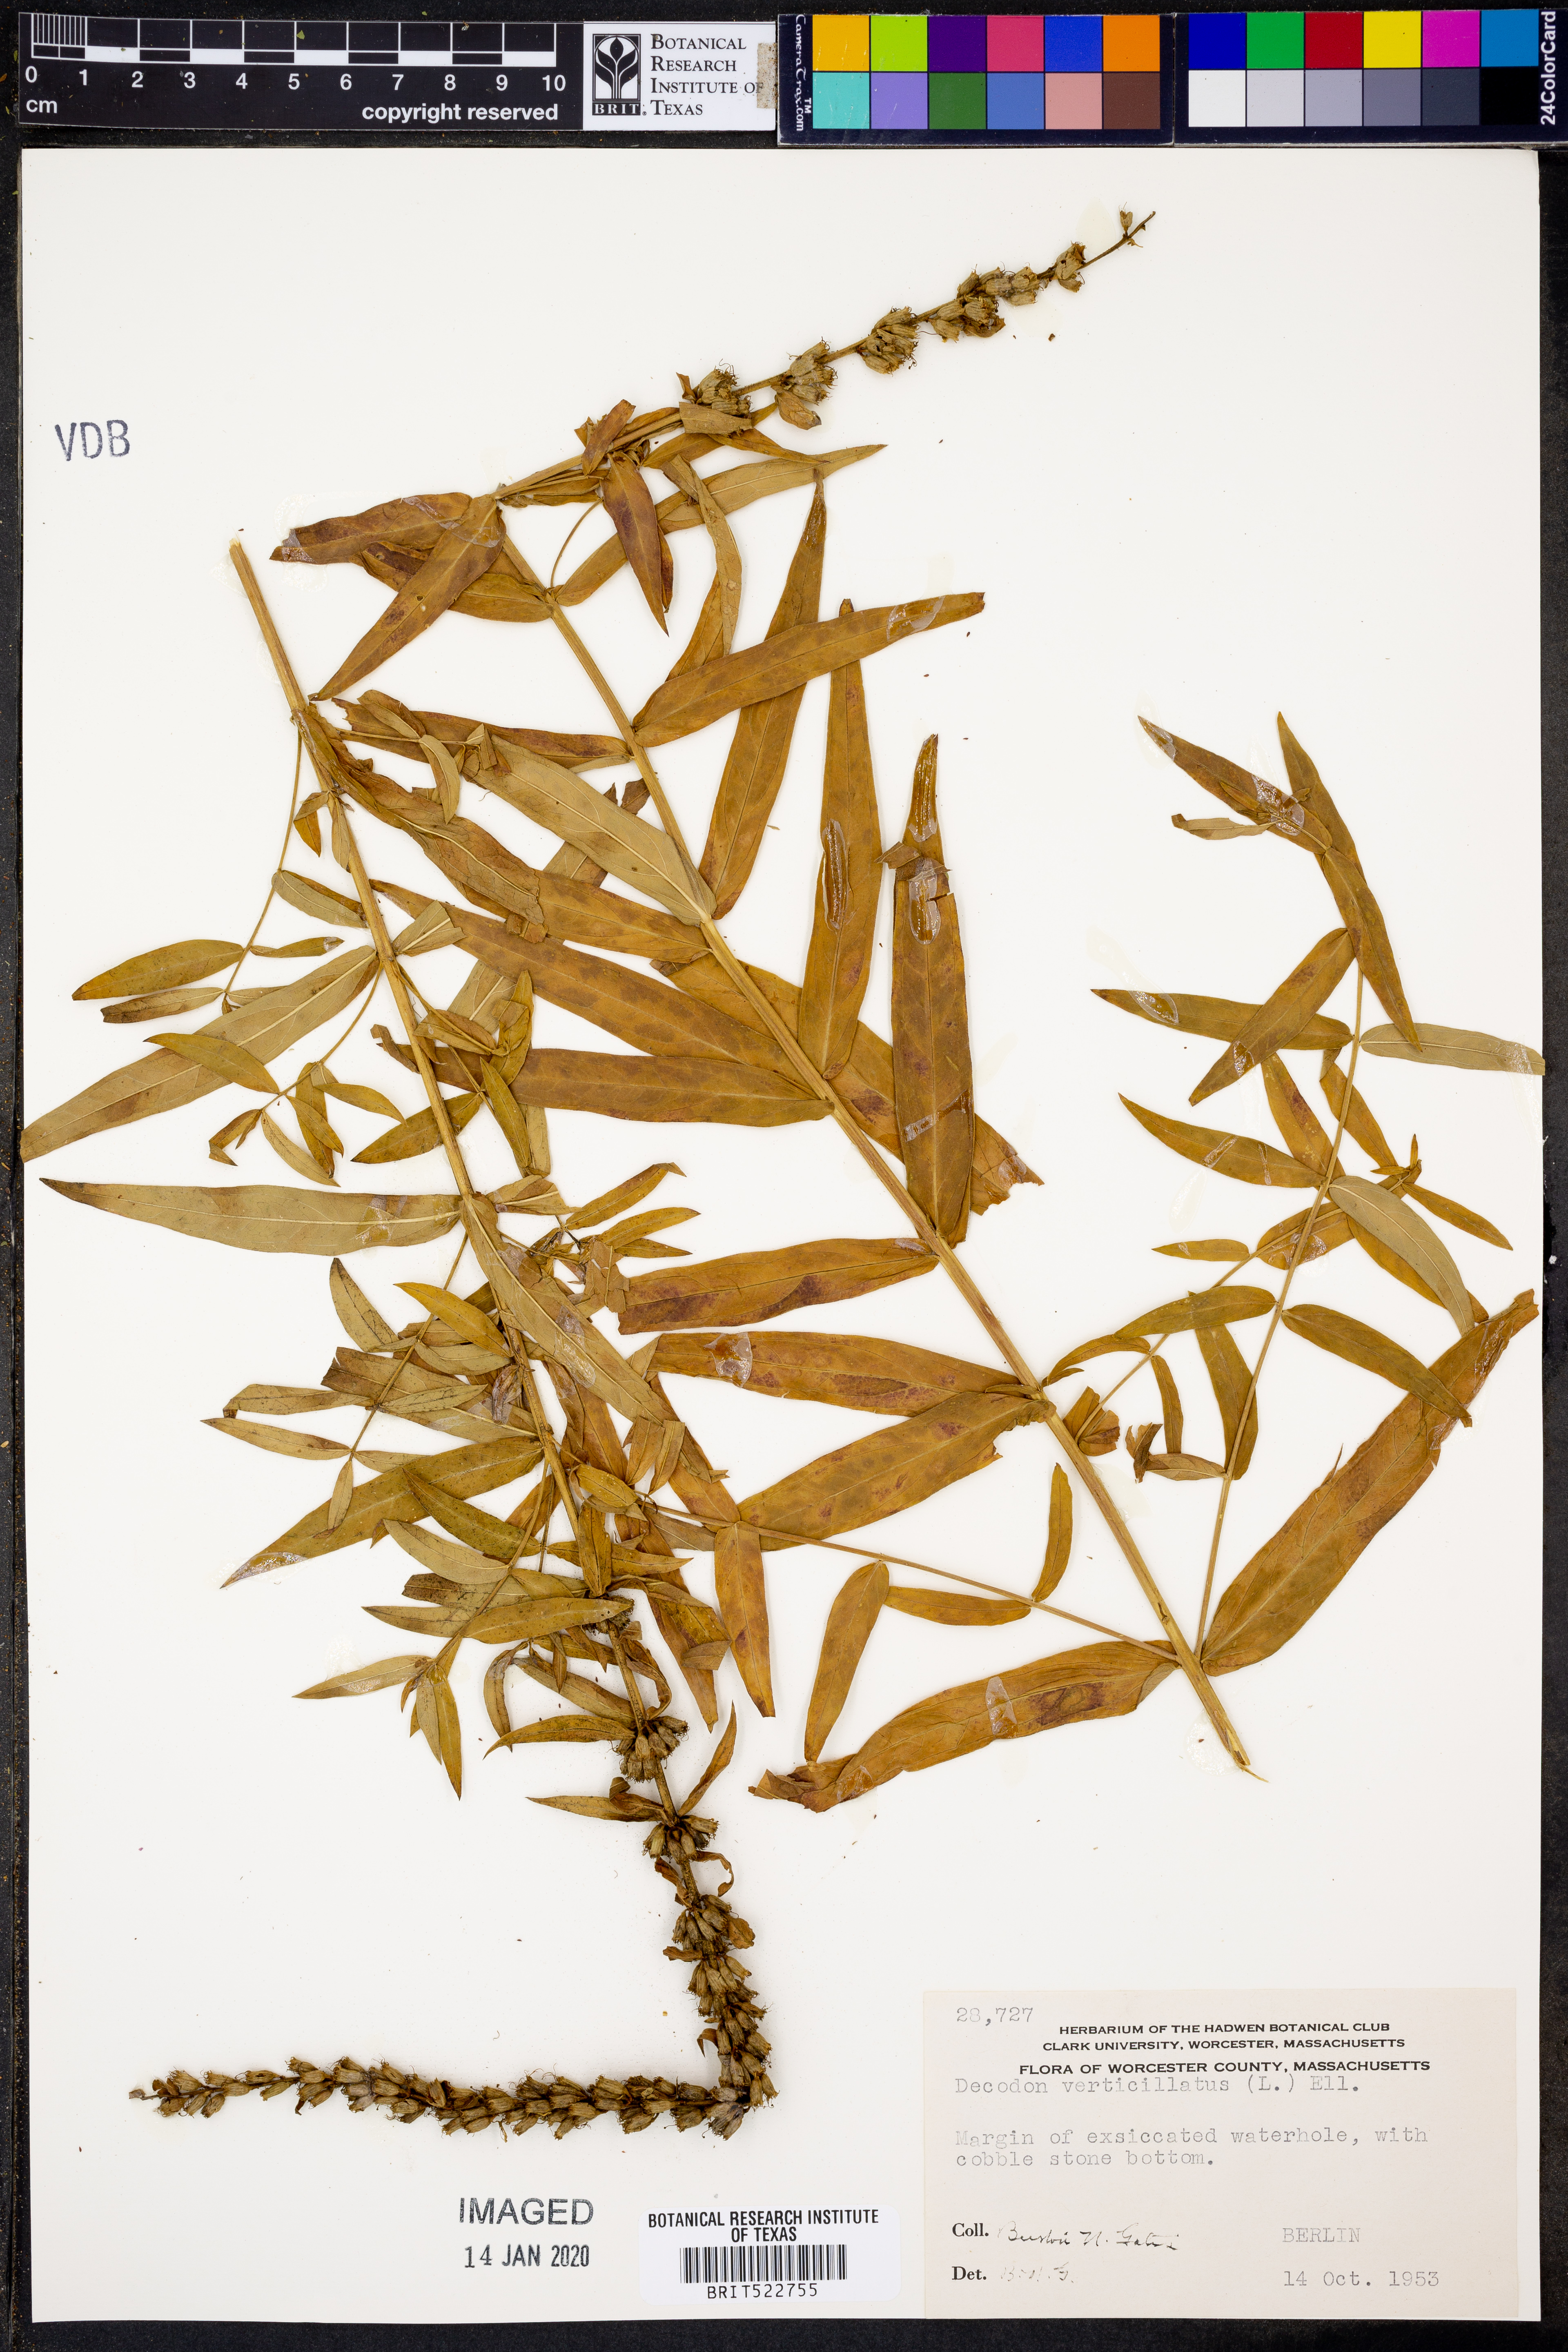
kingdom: Plantae
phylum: Tracheophyta
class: Magnoliopsida
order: Myrtales
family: Lythraceae
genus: Decodon
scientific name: Decodon verticillatus
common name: Hairy swamp loosestrife
